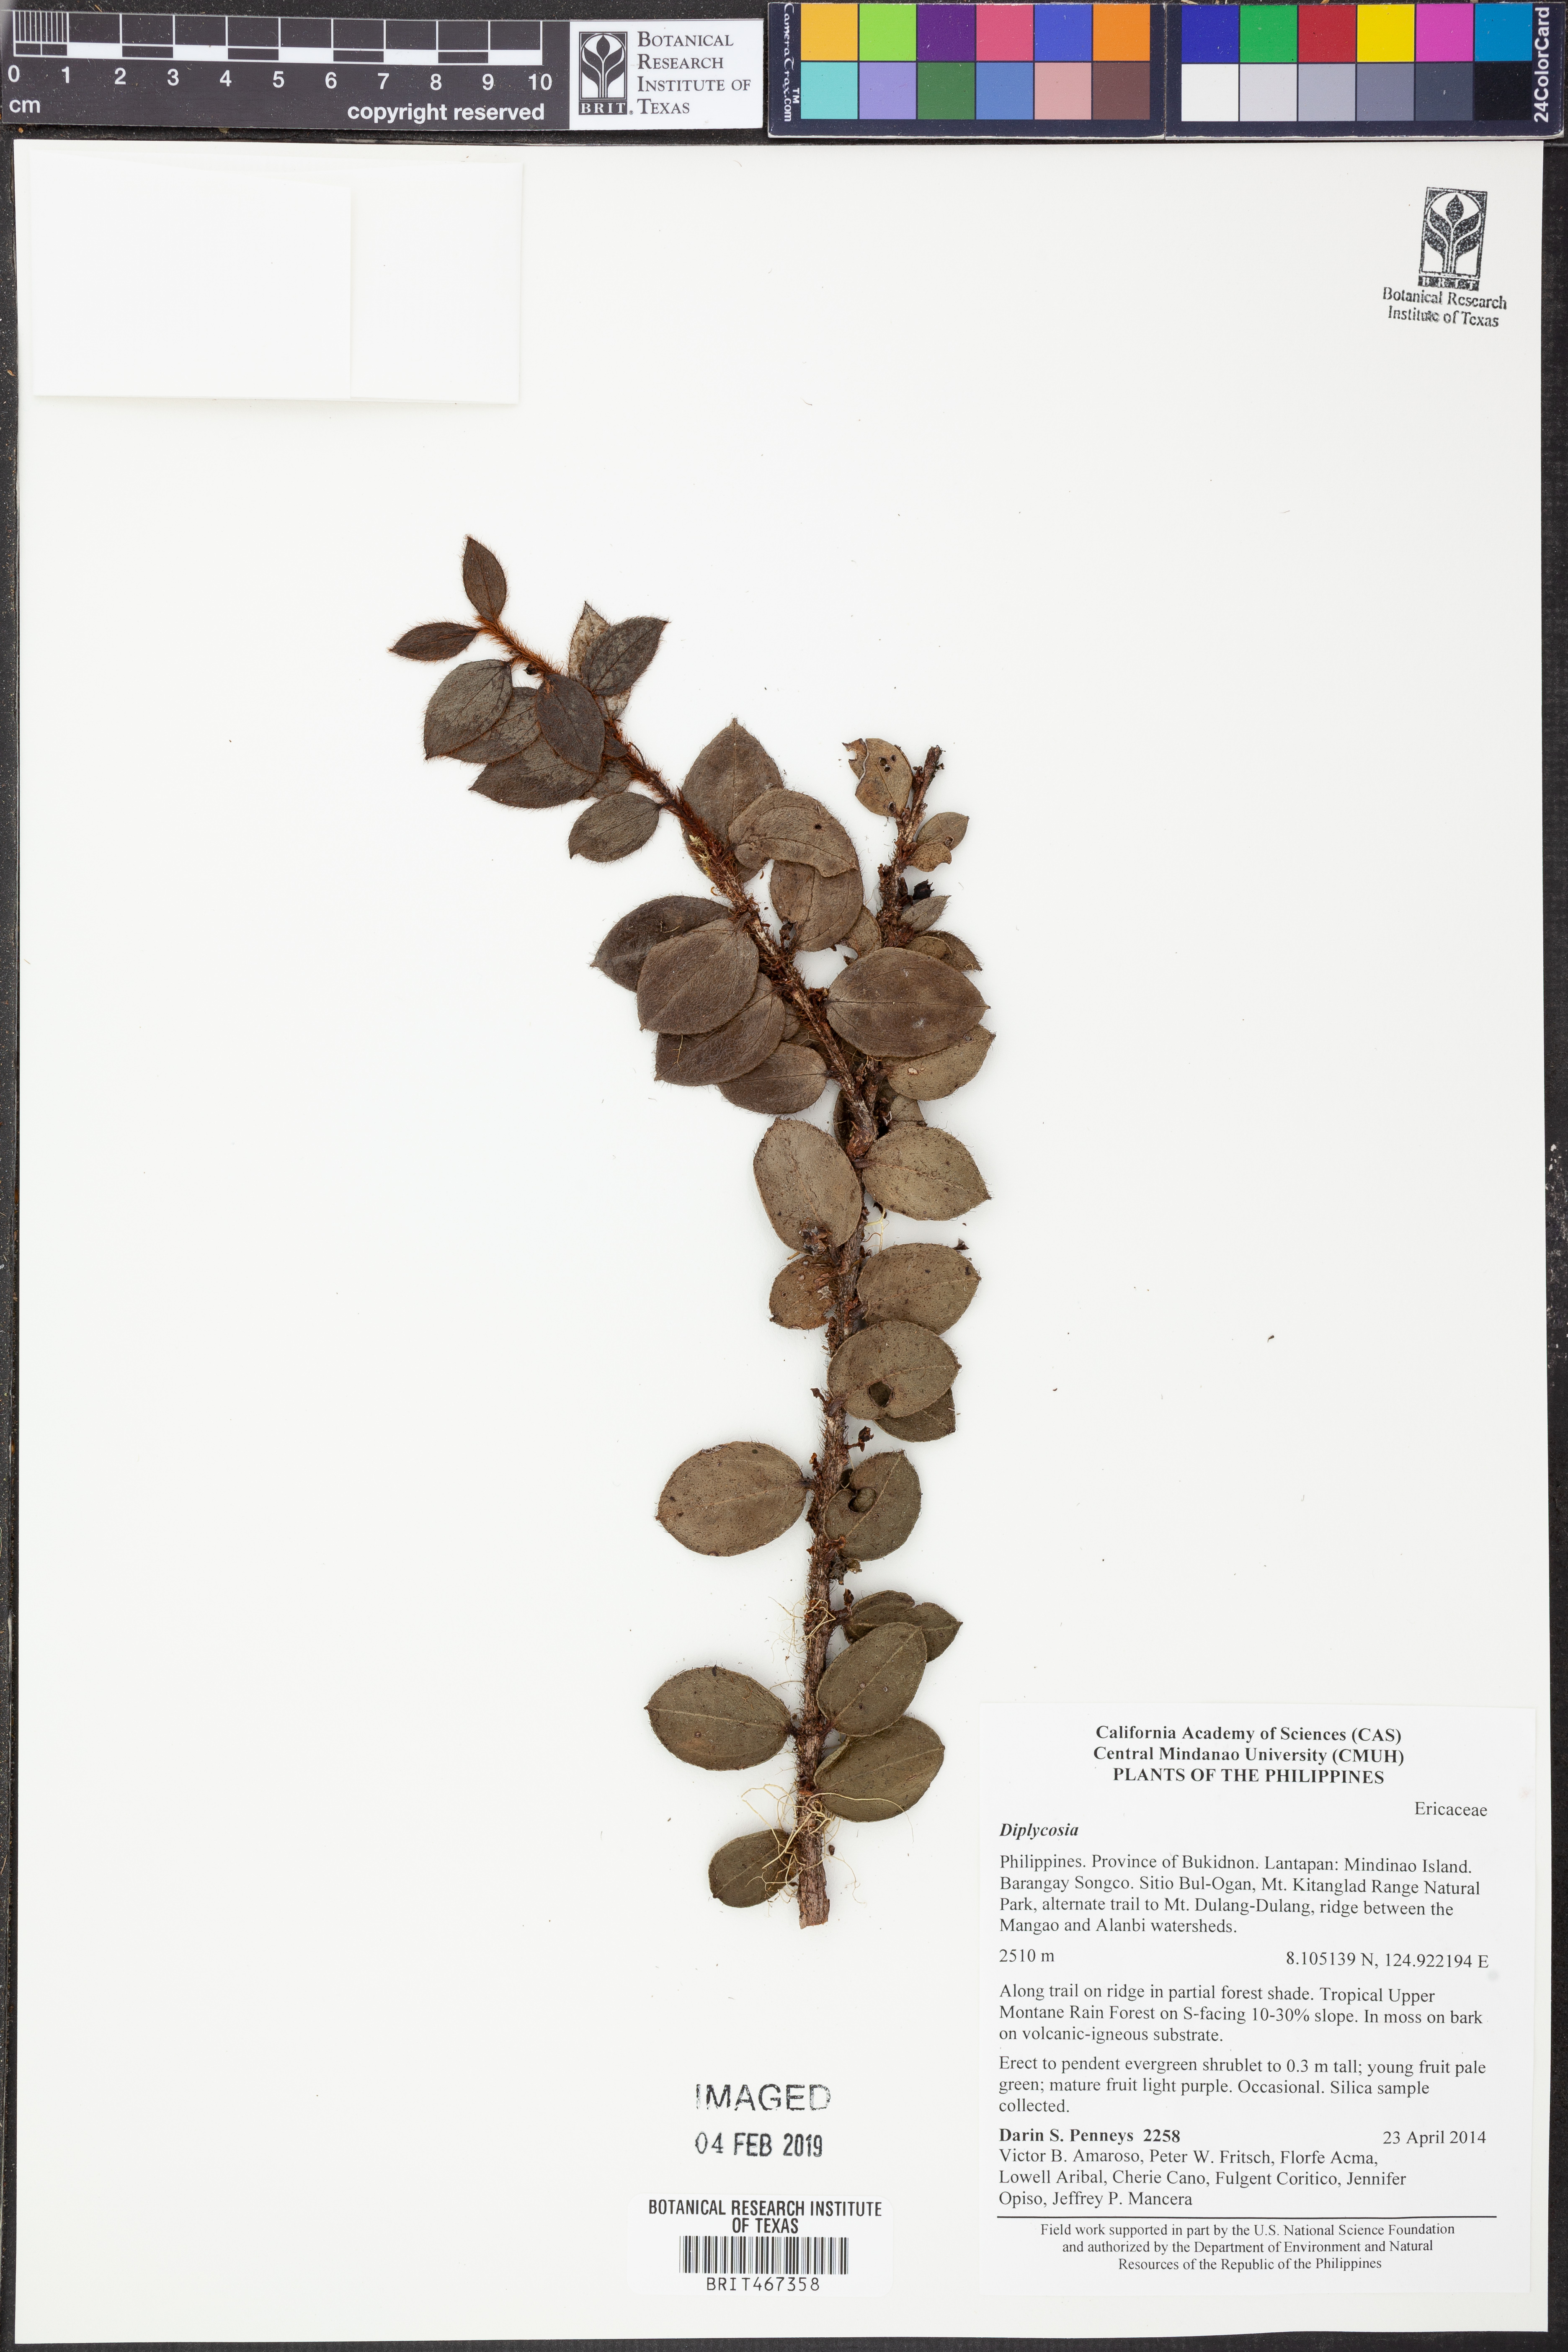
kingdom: Plantae
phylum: Tracheophyta
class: Magnoliopsida
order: Ericales
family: Ericaceae
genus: Gaultheria
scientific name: Gaultheria
